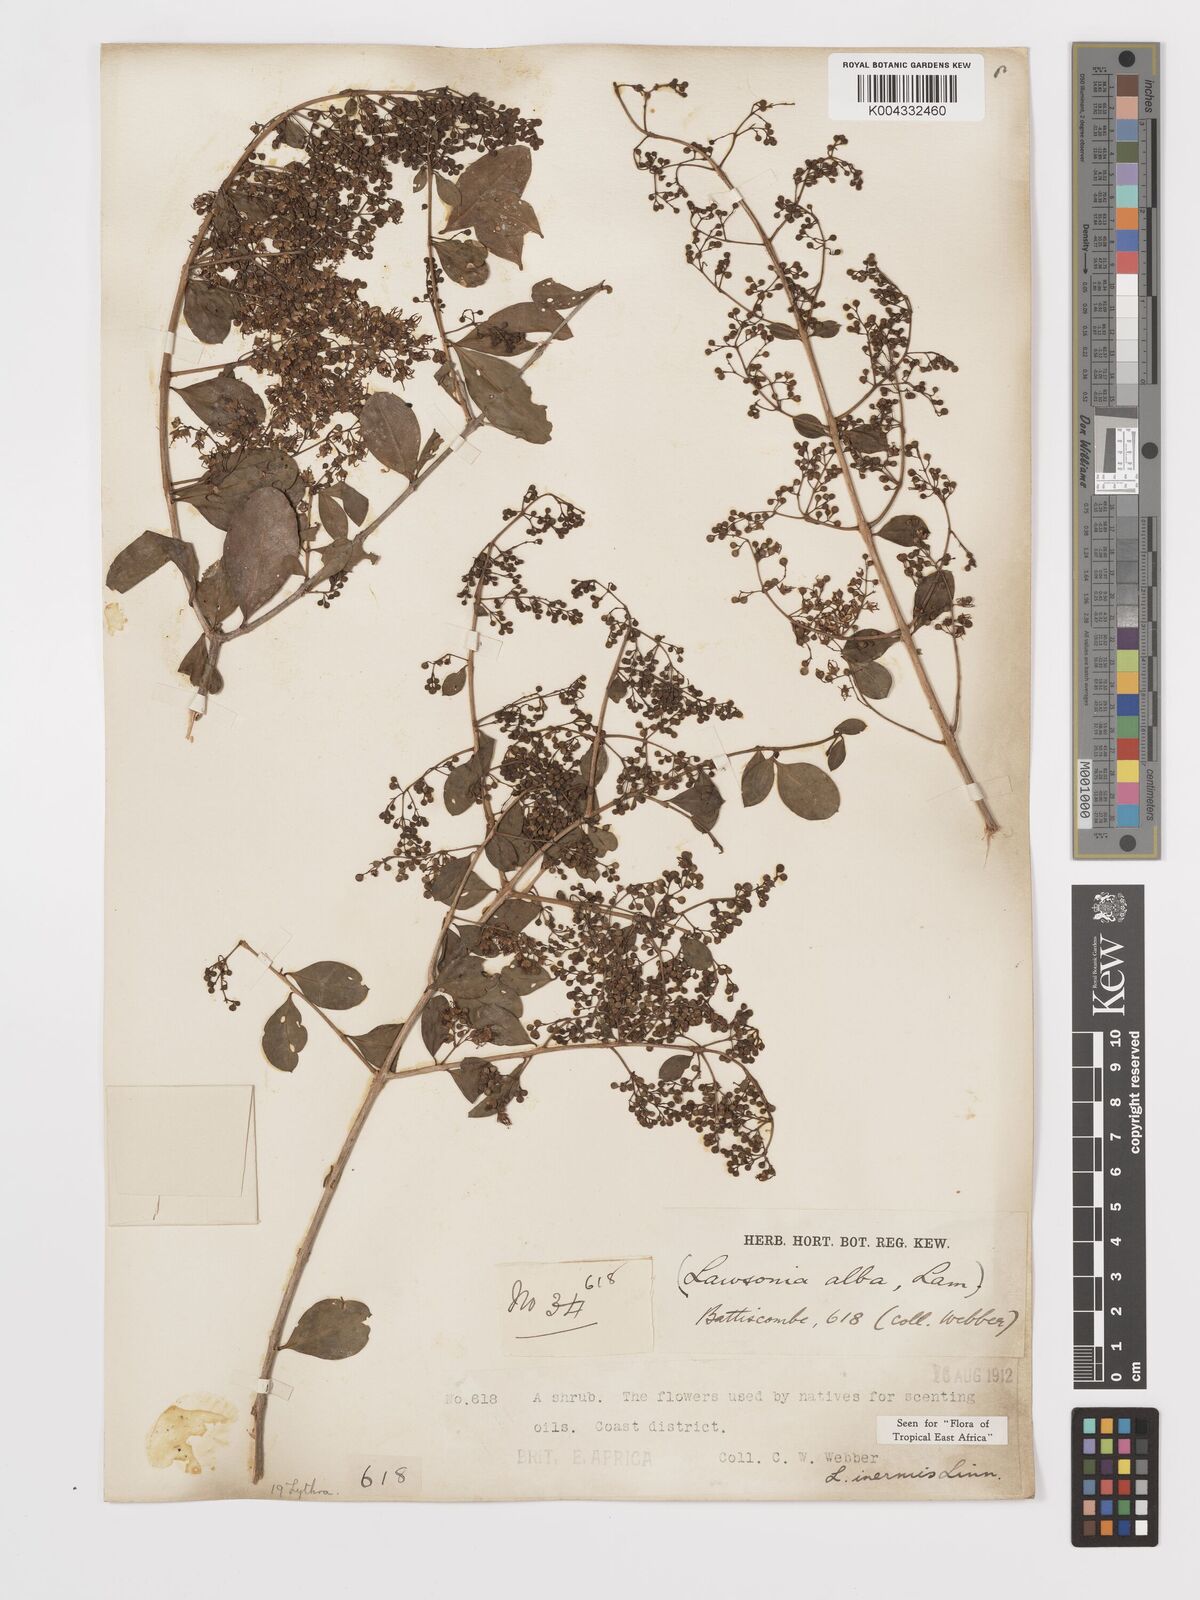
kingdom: Plantae
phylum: Tracheophyta
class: Magnoliopsida
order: Myrtales
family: Lythraceae
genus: Lawsonia
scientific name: Lawsonia inermis
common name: Henna
